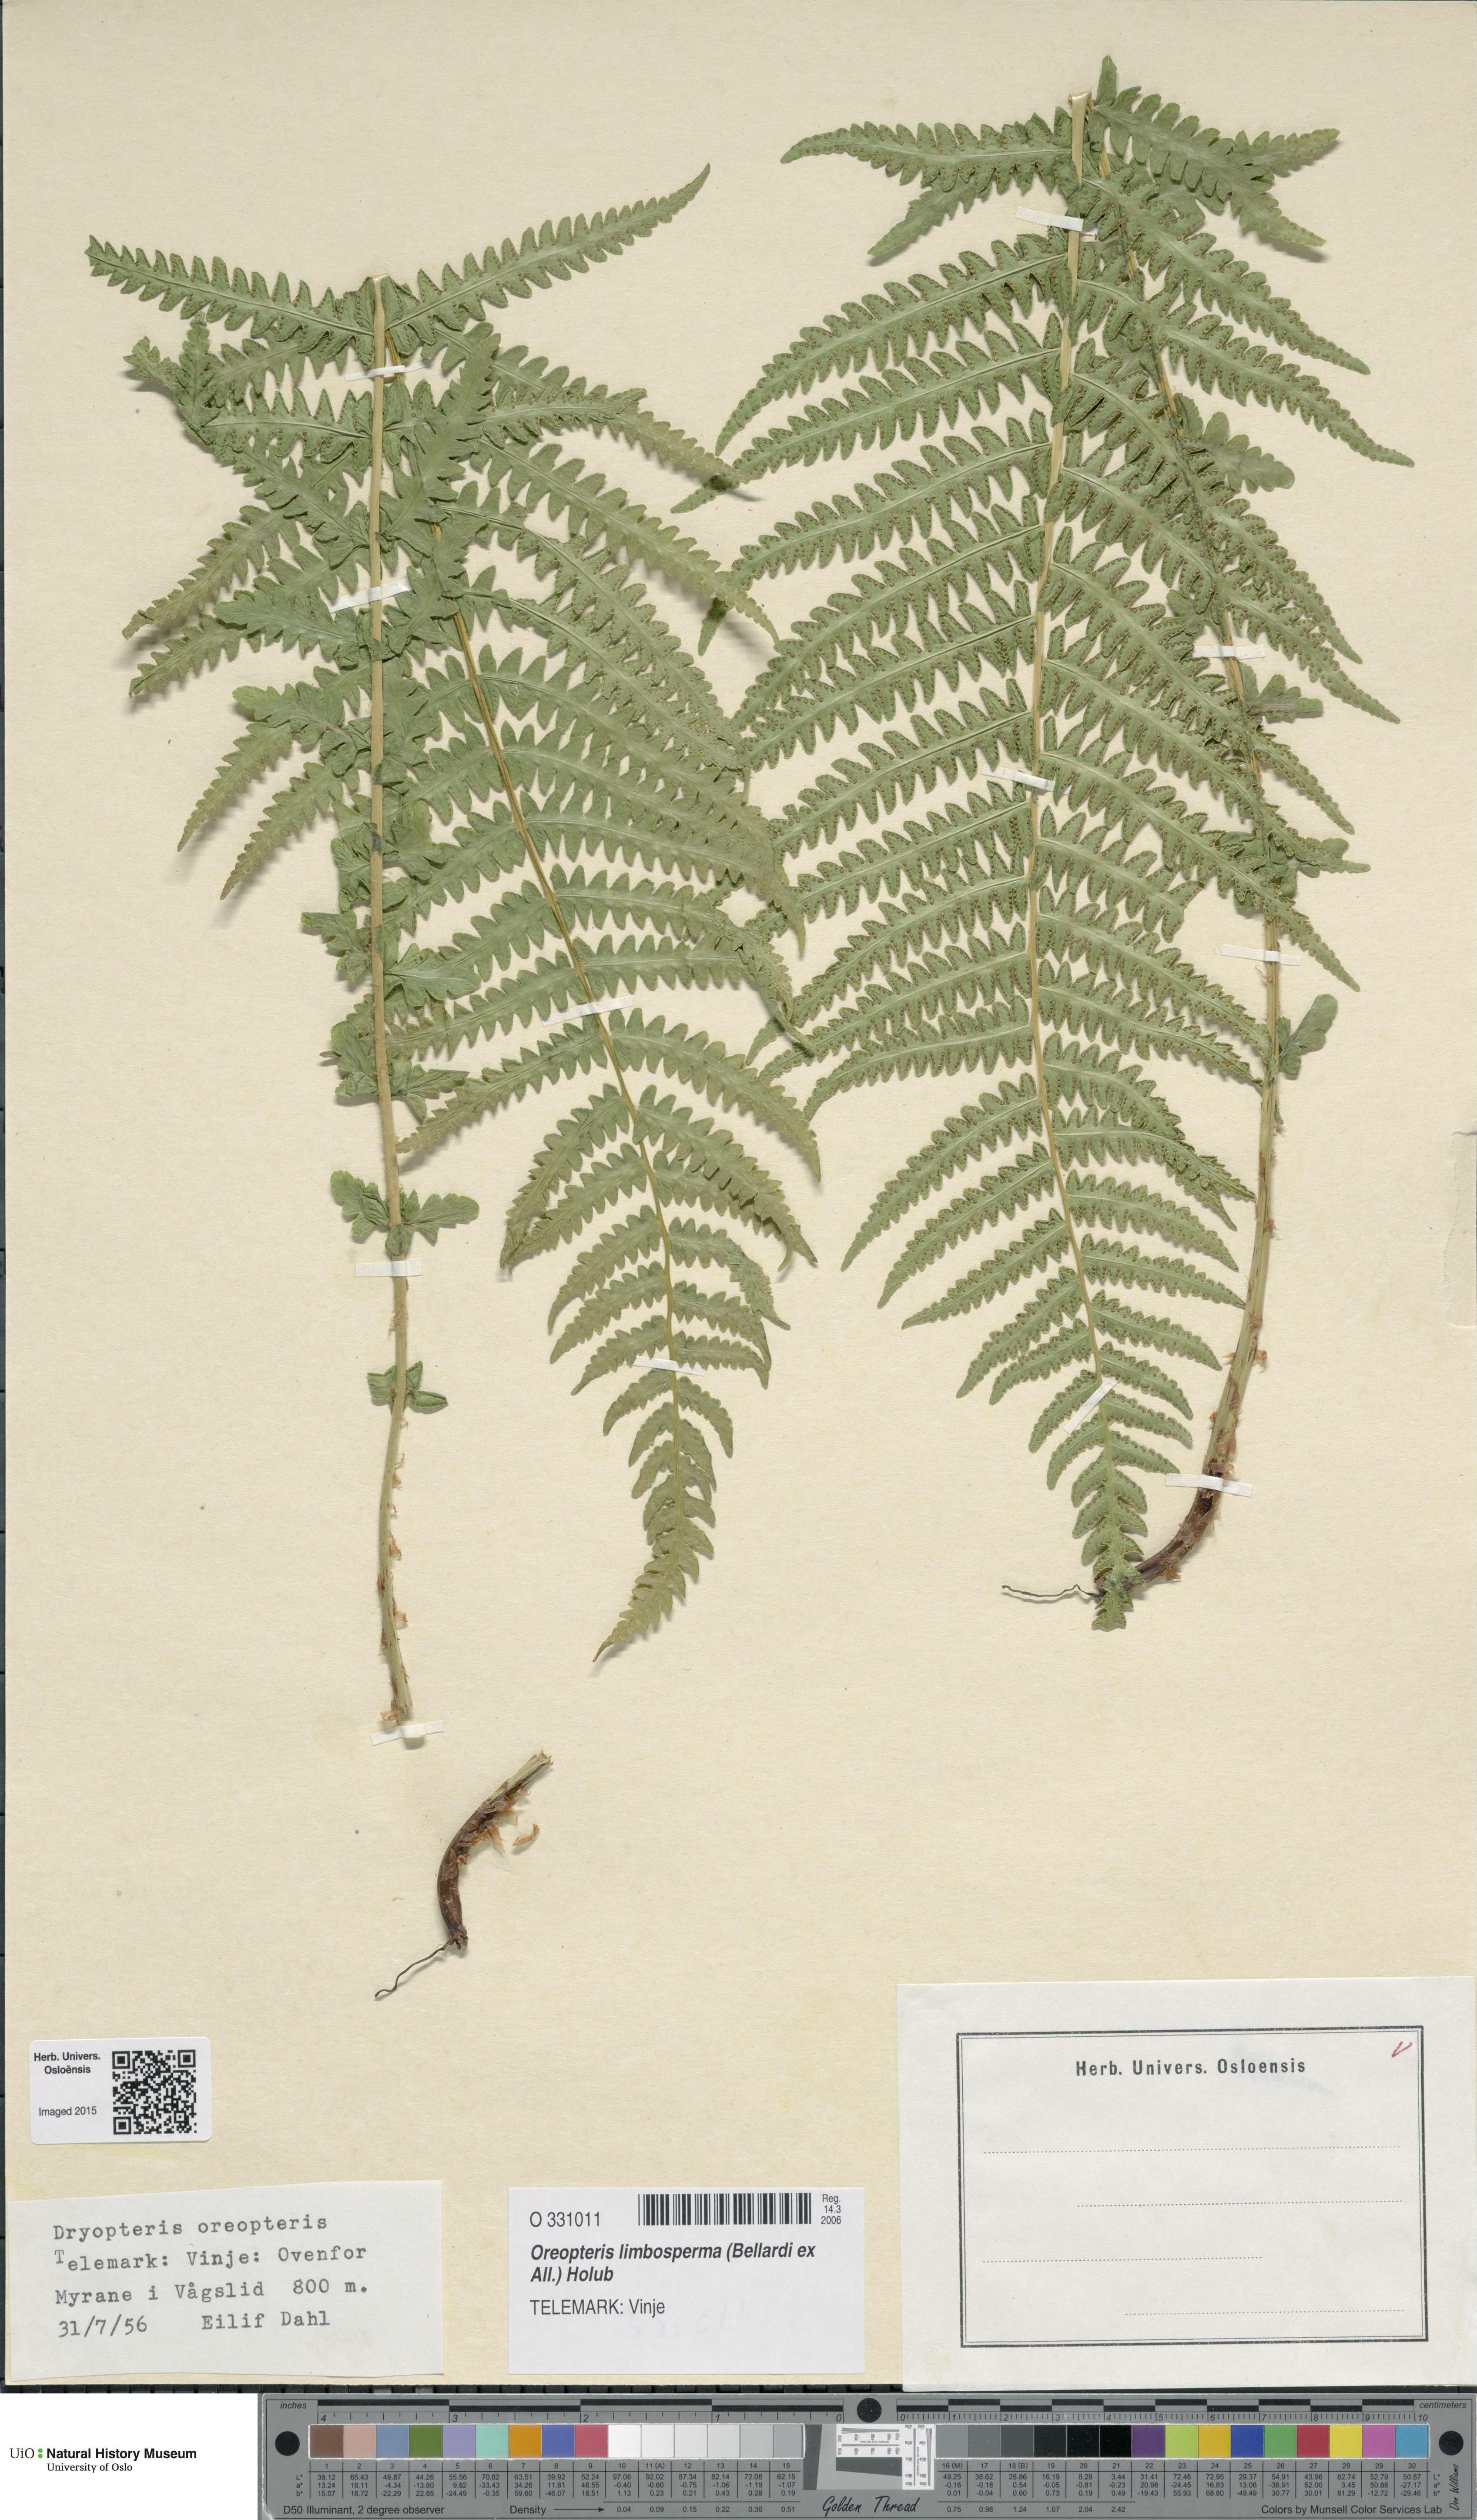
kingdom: Plantae
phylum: Tracheophyta
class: Polypodiopsida
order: Polypodiales
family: Thelypteridaceae
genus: Oreopteris
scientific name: Oreopteris limbosperma
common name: Lemon-scented fern
